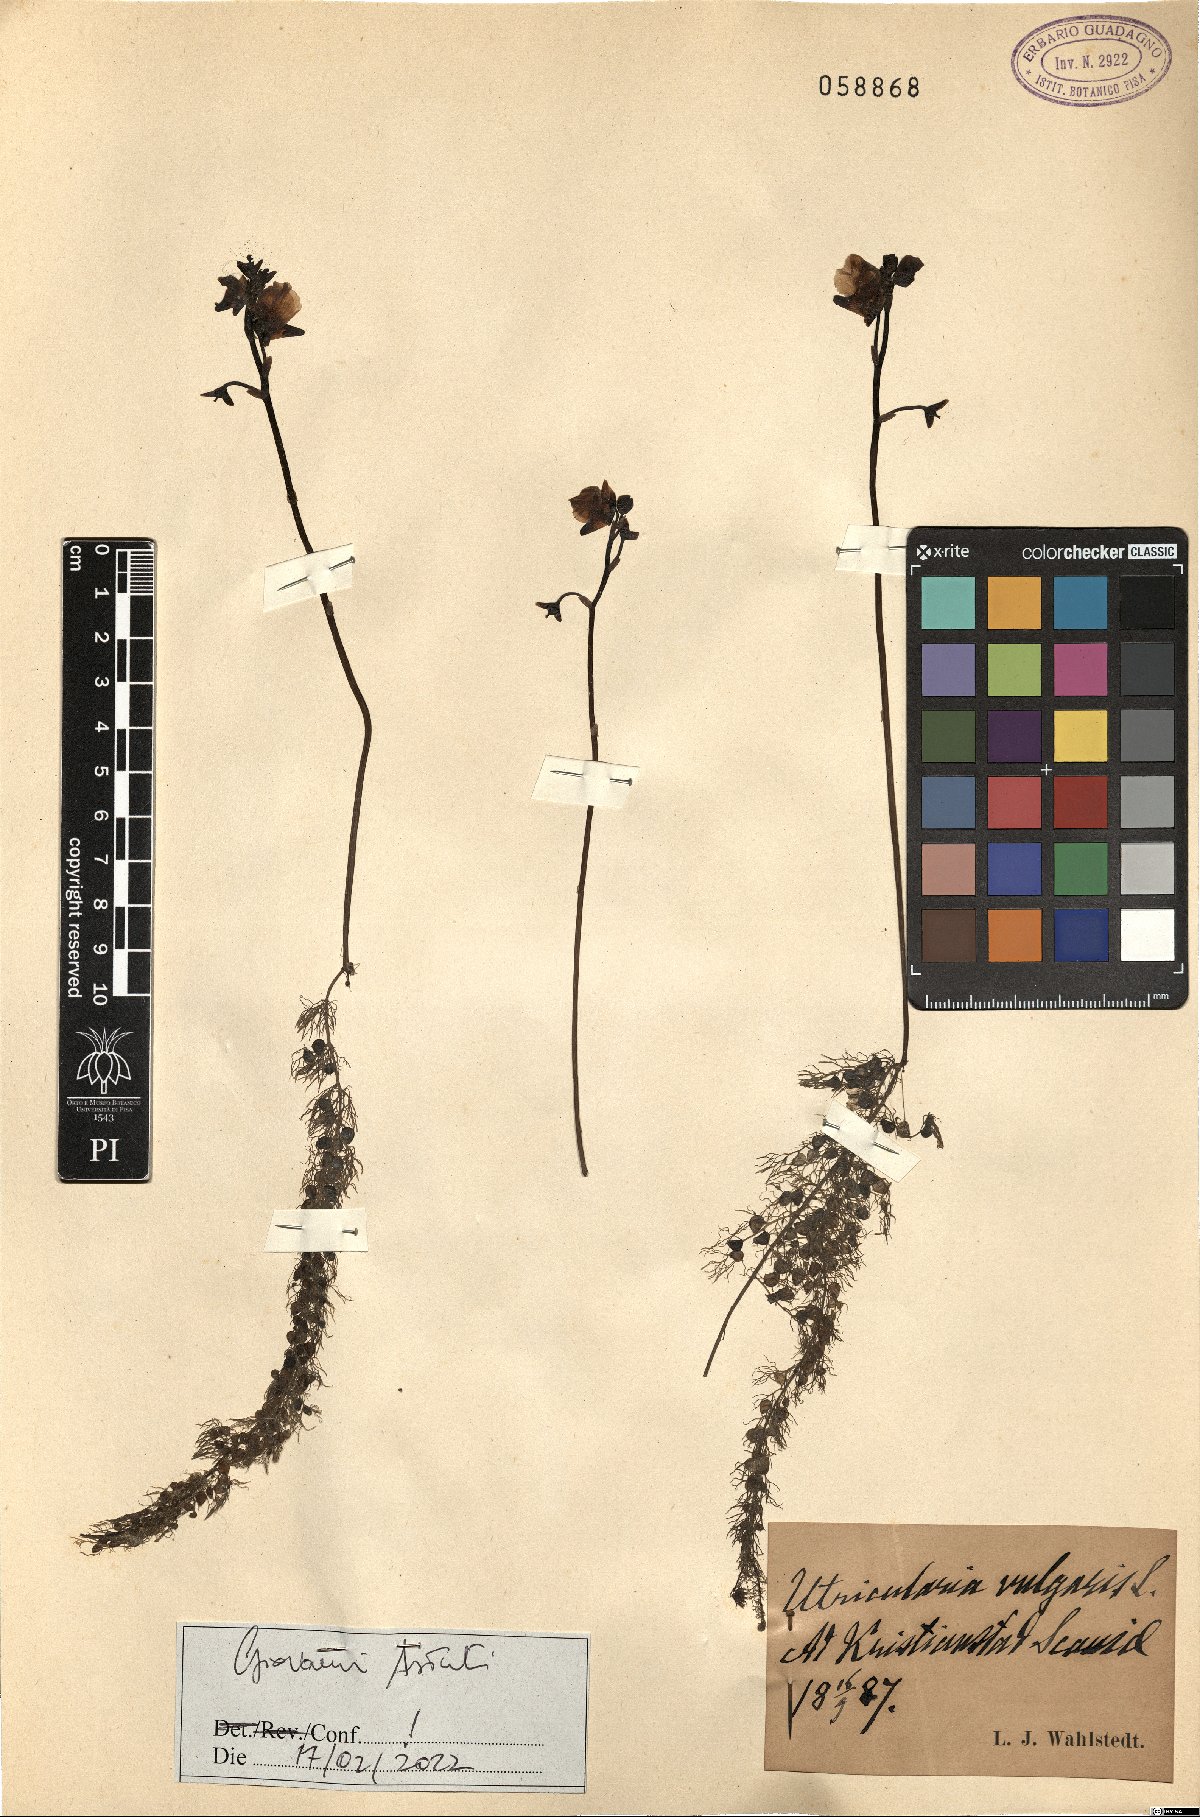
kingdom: Plantae
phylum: Tracheophyta
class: Magnoliopsida
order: Lamiales
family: Lentibulariaceae
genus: Utricularia
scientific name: Utricularia australis
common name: Bladderwort
